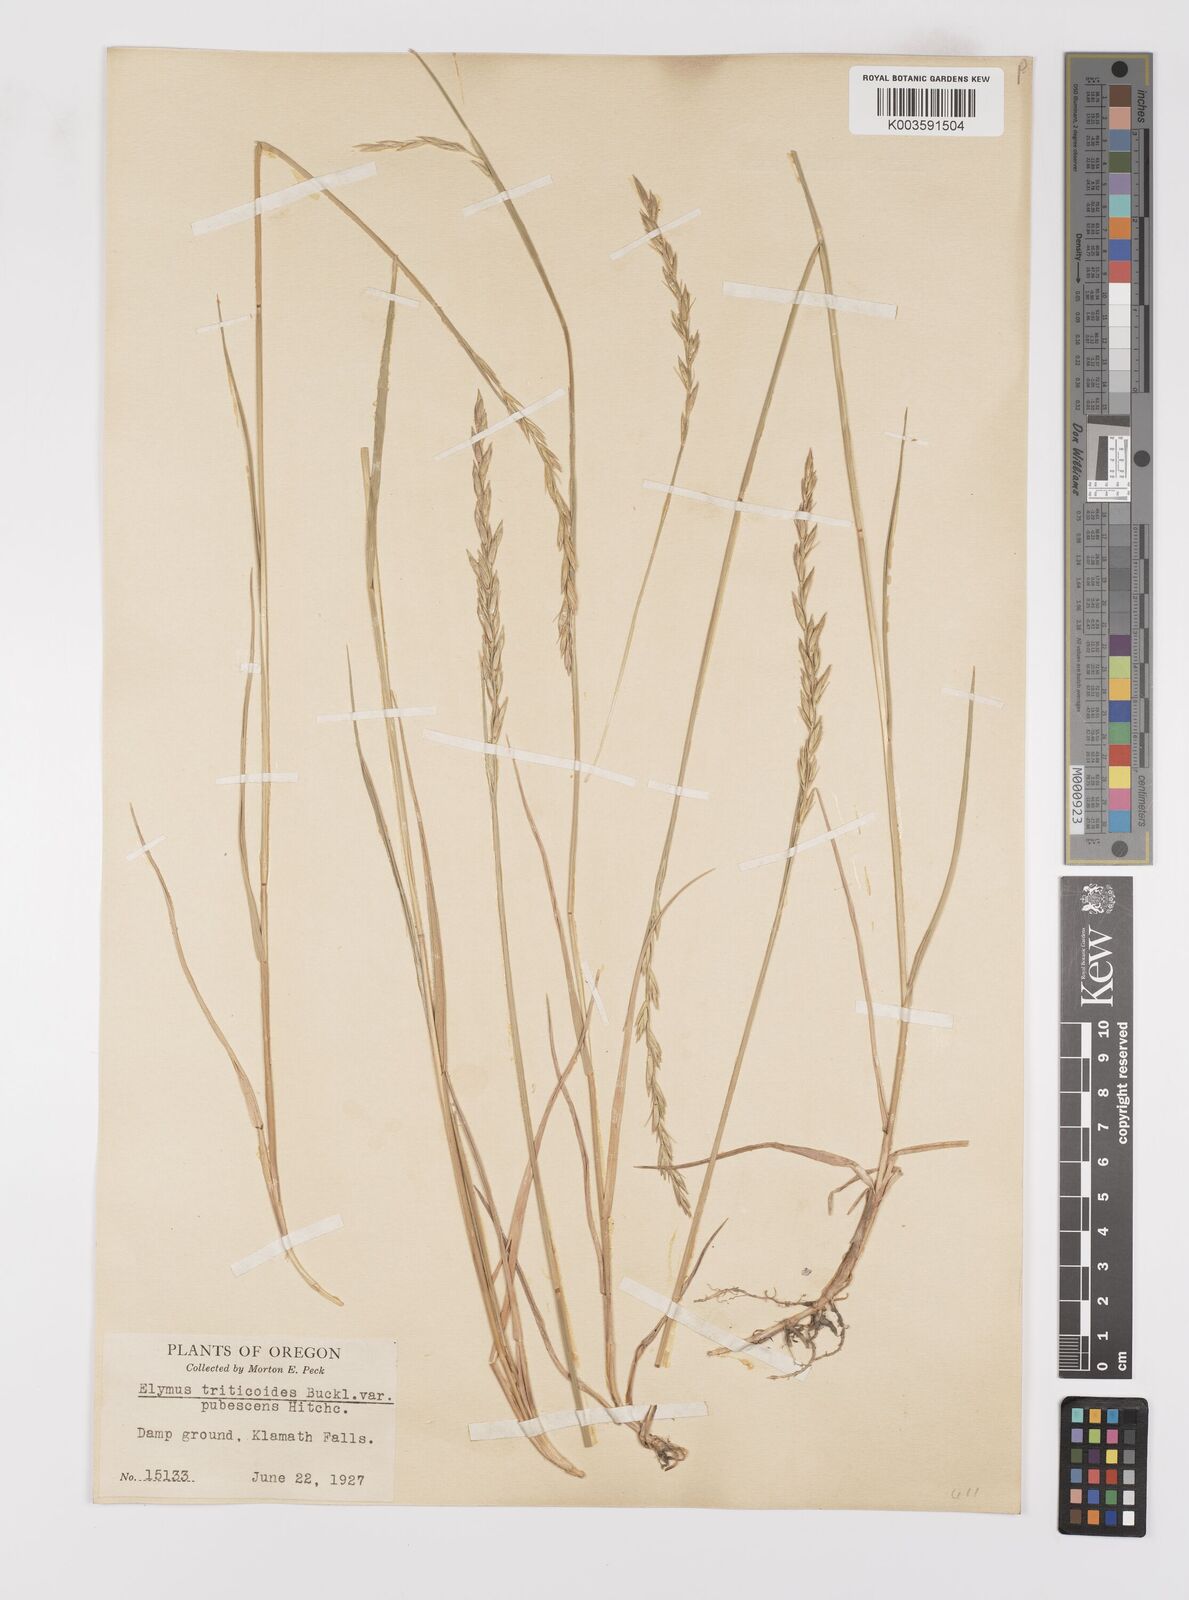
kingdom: Plantae
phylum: Tracheophyta
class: Liliopsida
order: Poales
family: Poaceae
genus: Leymus
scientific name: Leymus triticoides
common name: Beardless wild rye
